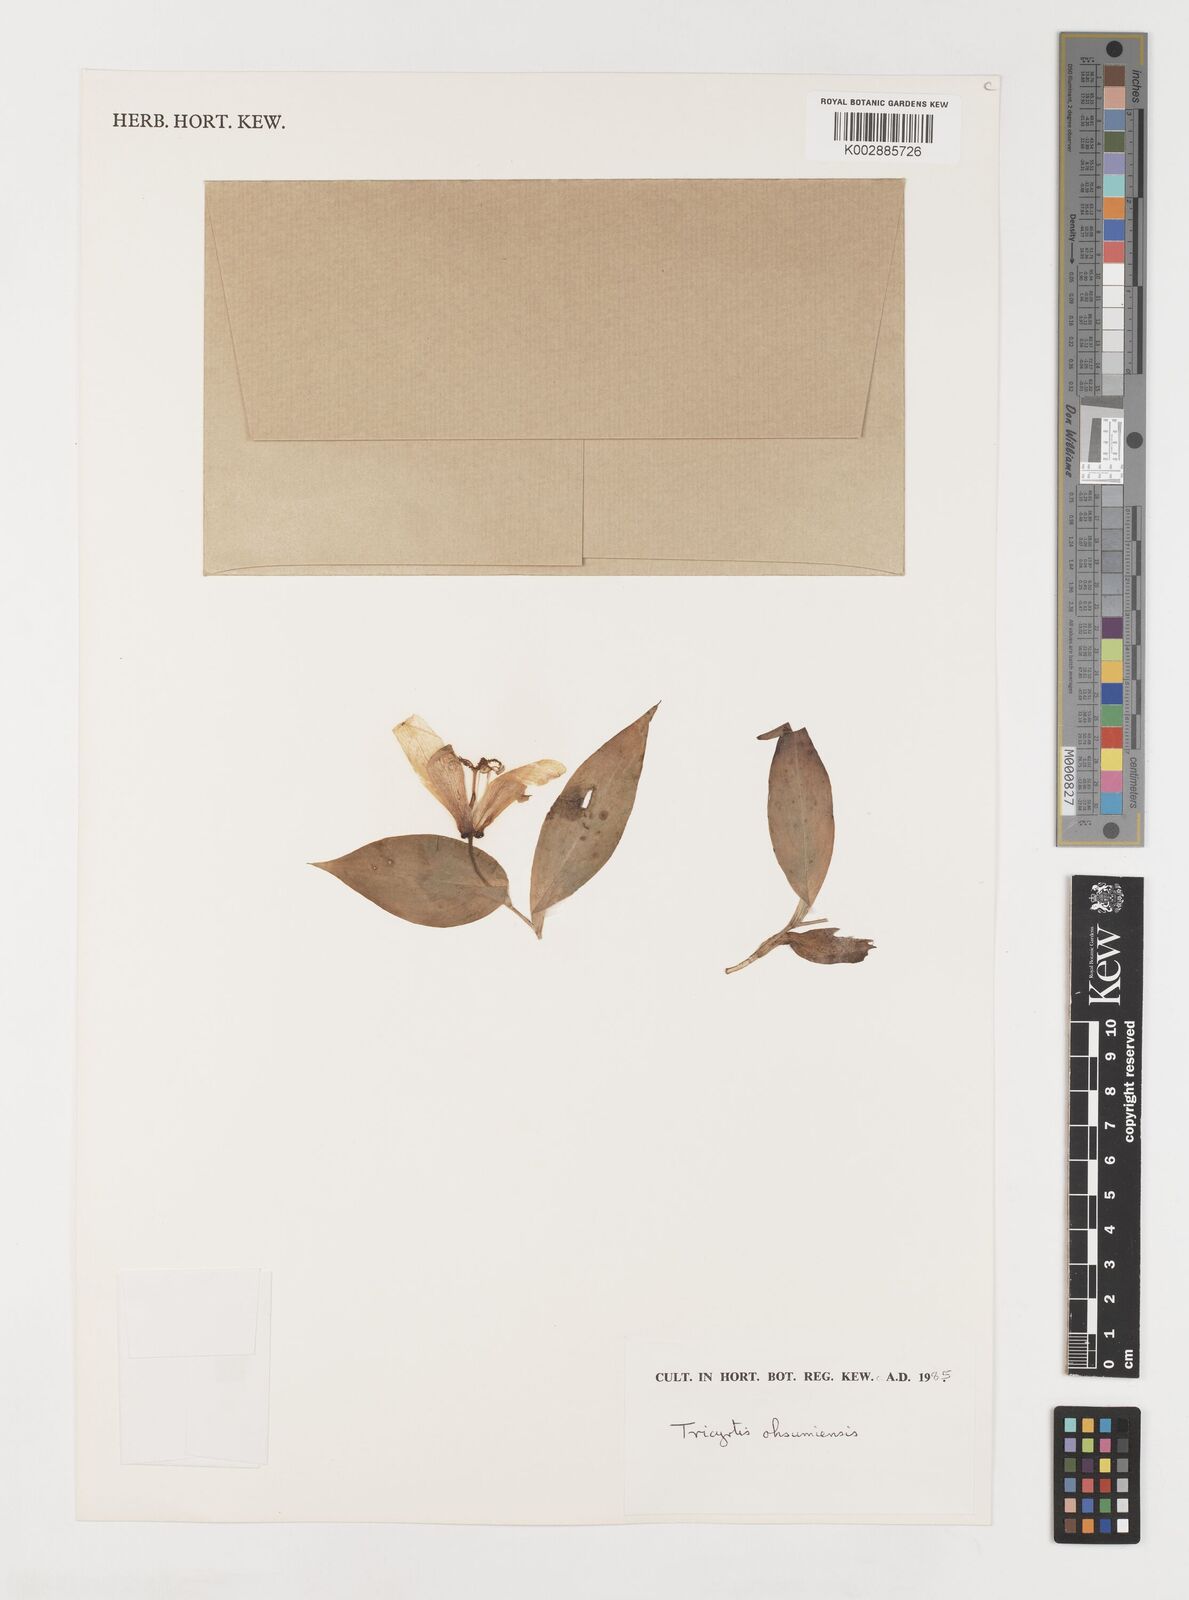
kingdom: Plantae
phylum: Tracheophyta
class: Liliopsida
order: Liliales
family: Liliaceae
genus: Tricyrtis
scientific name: Tricyrtis ohsumiensis
